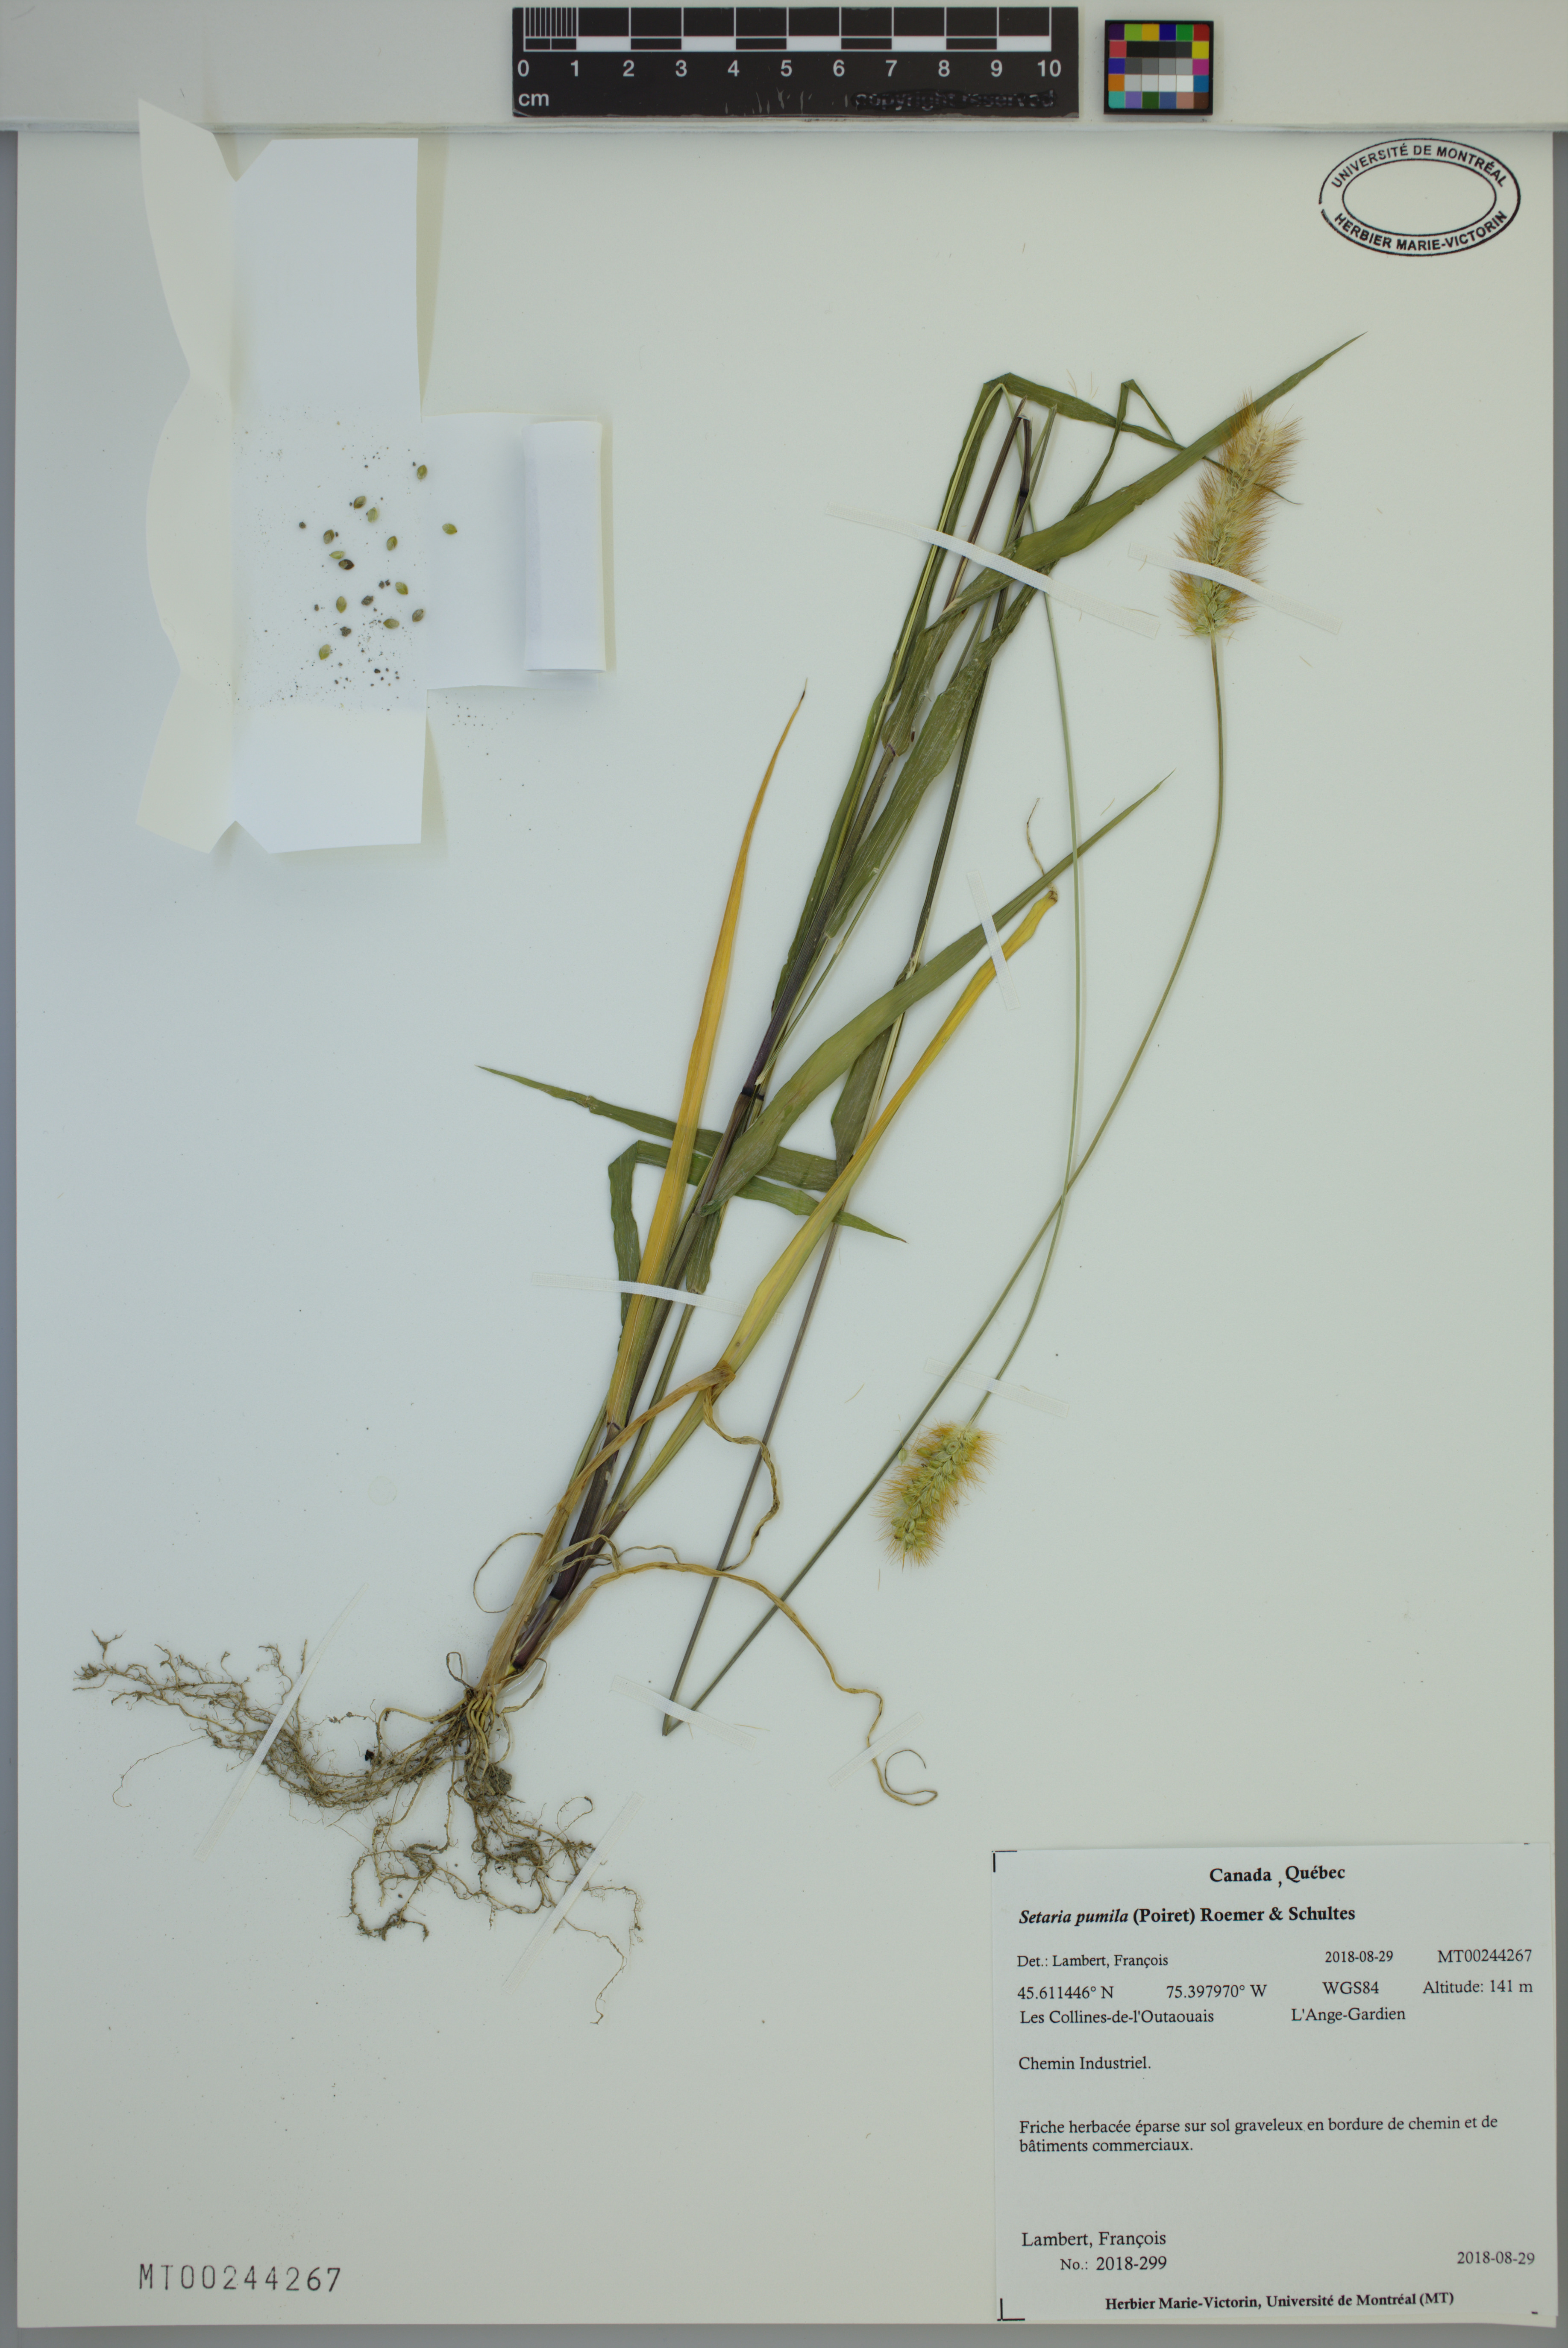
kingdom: Plantae
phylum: Tracheophyta
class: Liliopsida
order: Poales
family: Poaceae
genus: Setaria
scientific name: Setaria pumila
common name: Yellow bristle-grass
